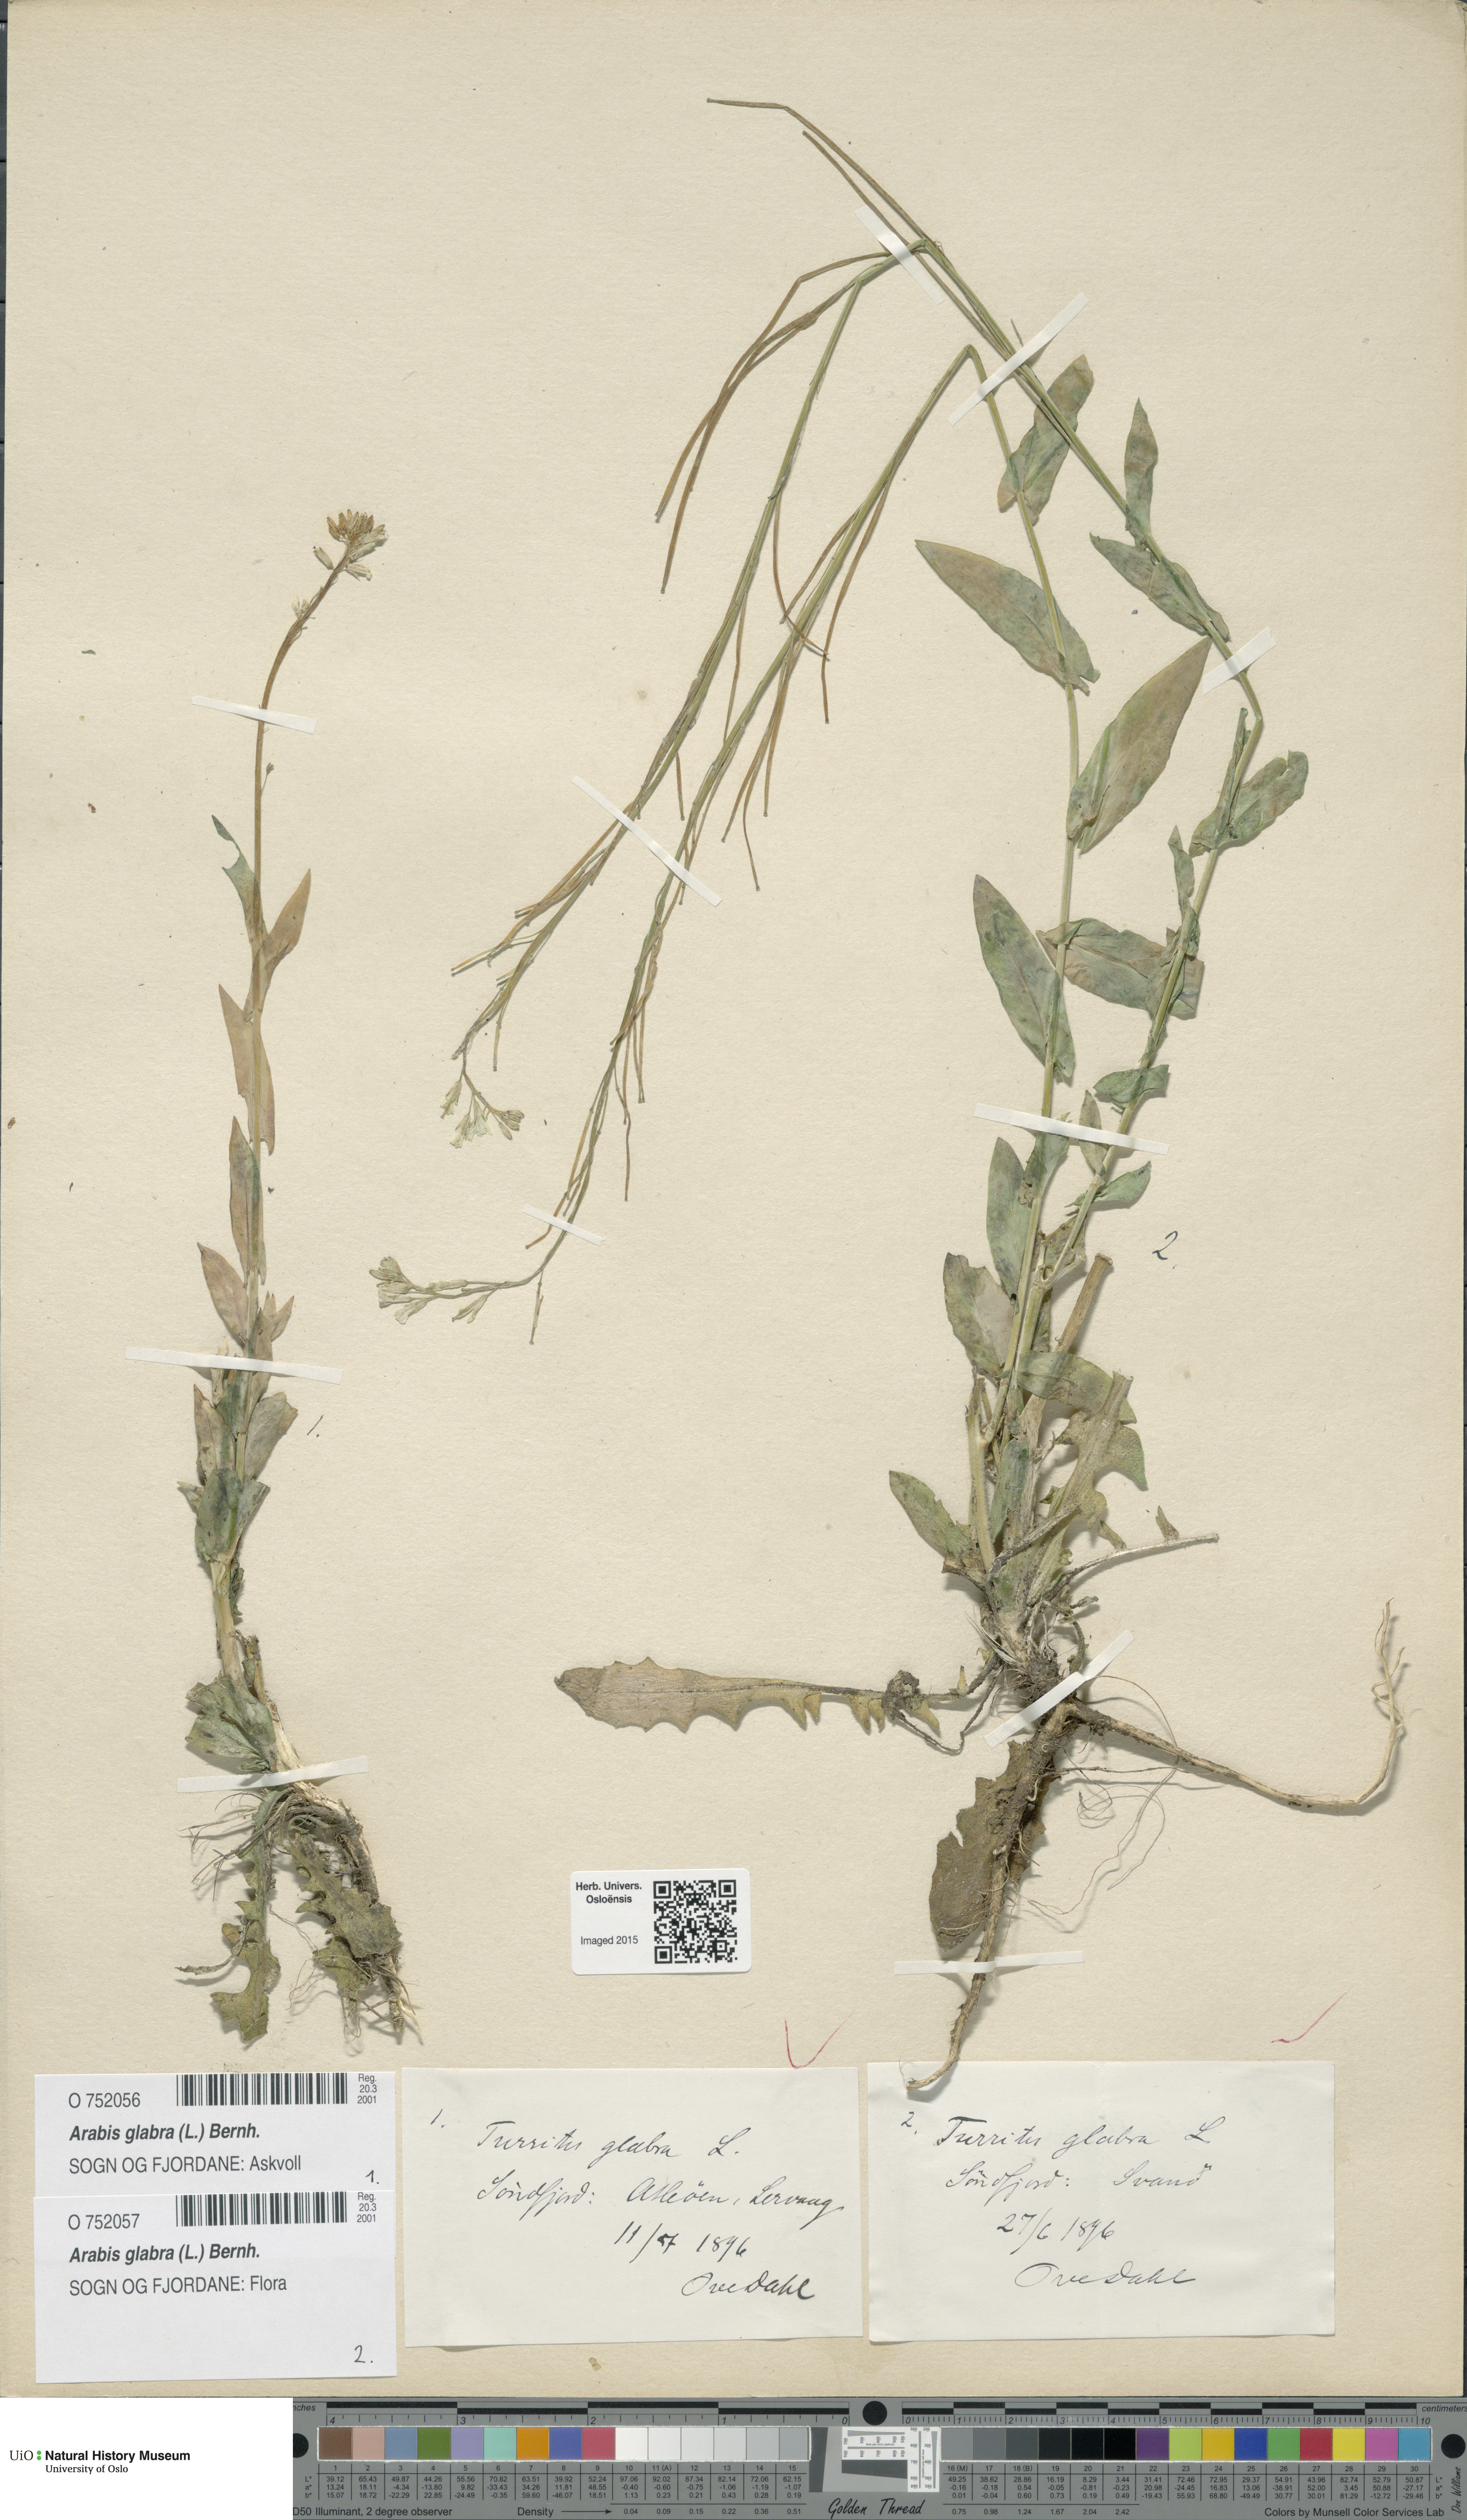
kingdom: Plantae
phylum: Tracheophyta
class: Magnoliopsida
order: Brassicales
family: Brassicaceae
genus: Turritis
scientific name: Turritis glabra
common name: Tower rockcress
